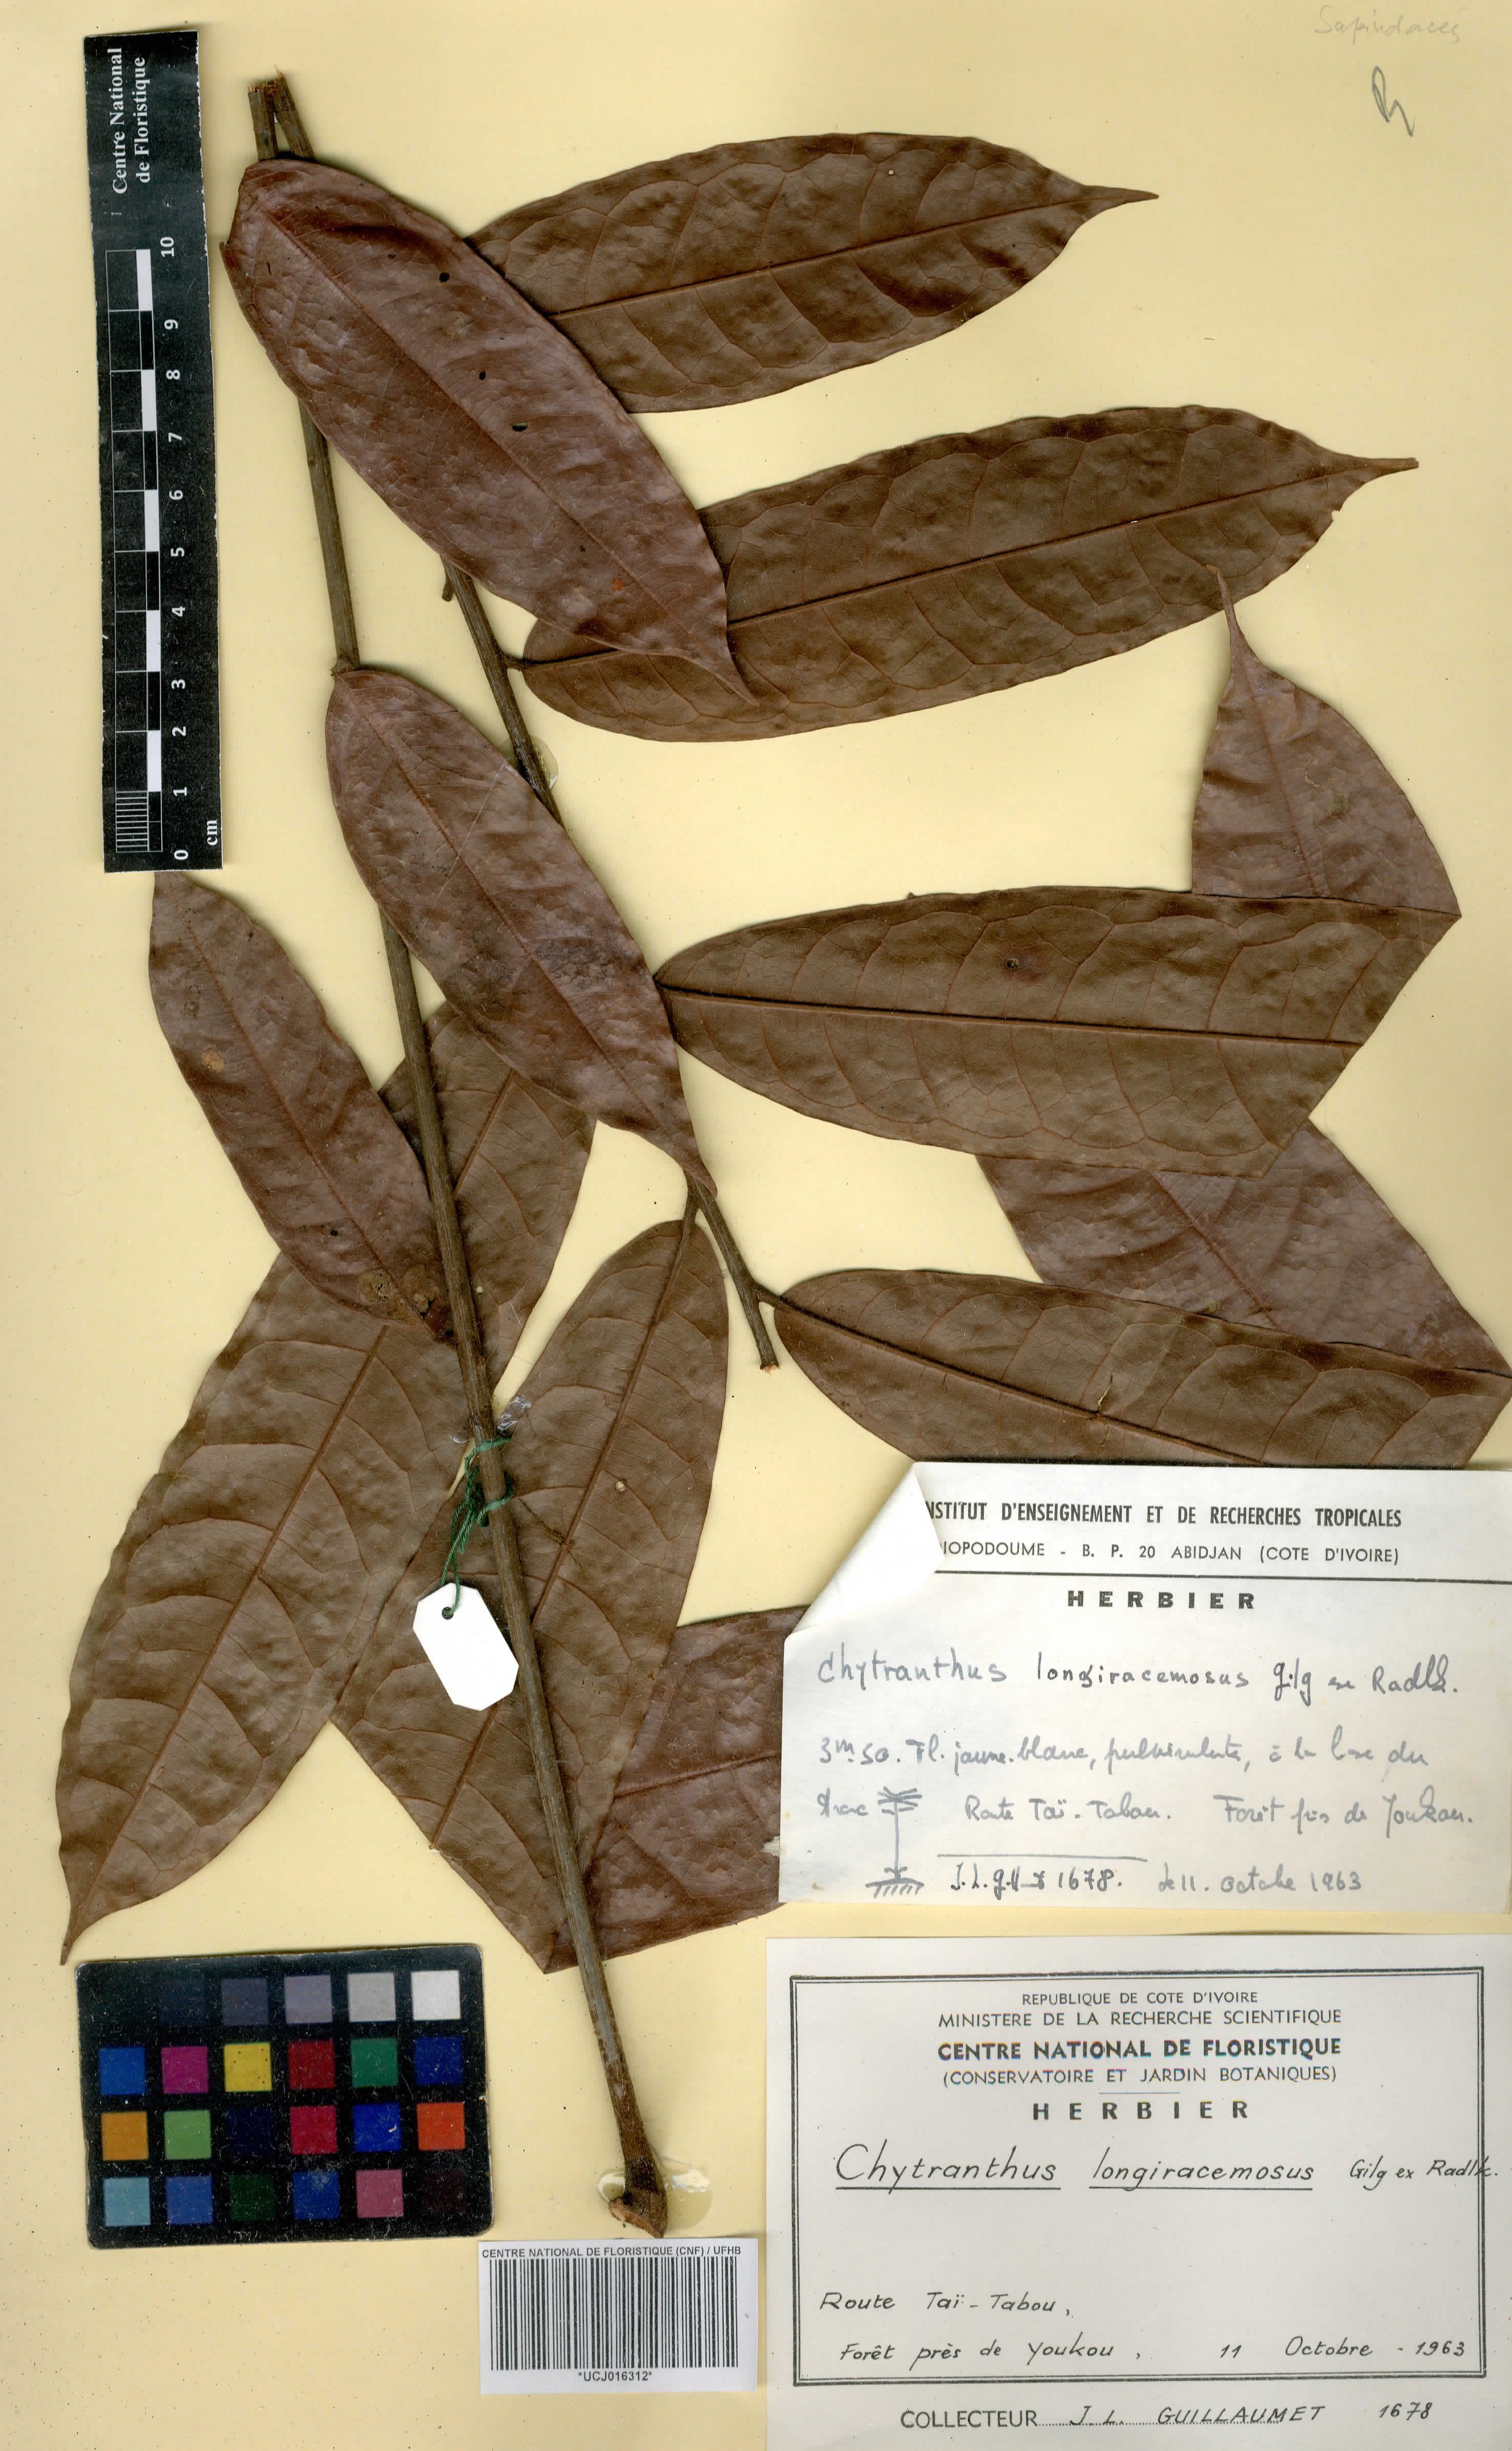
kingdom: Plantae
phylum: Tracheophyta
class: Magnoliopsida
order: Sapindales
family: Sapindaceae
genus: Chytranthus
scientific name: Chytranthus carneus
